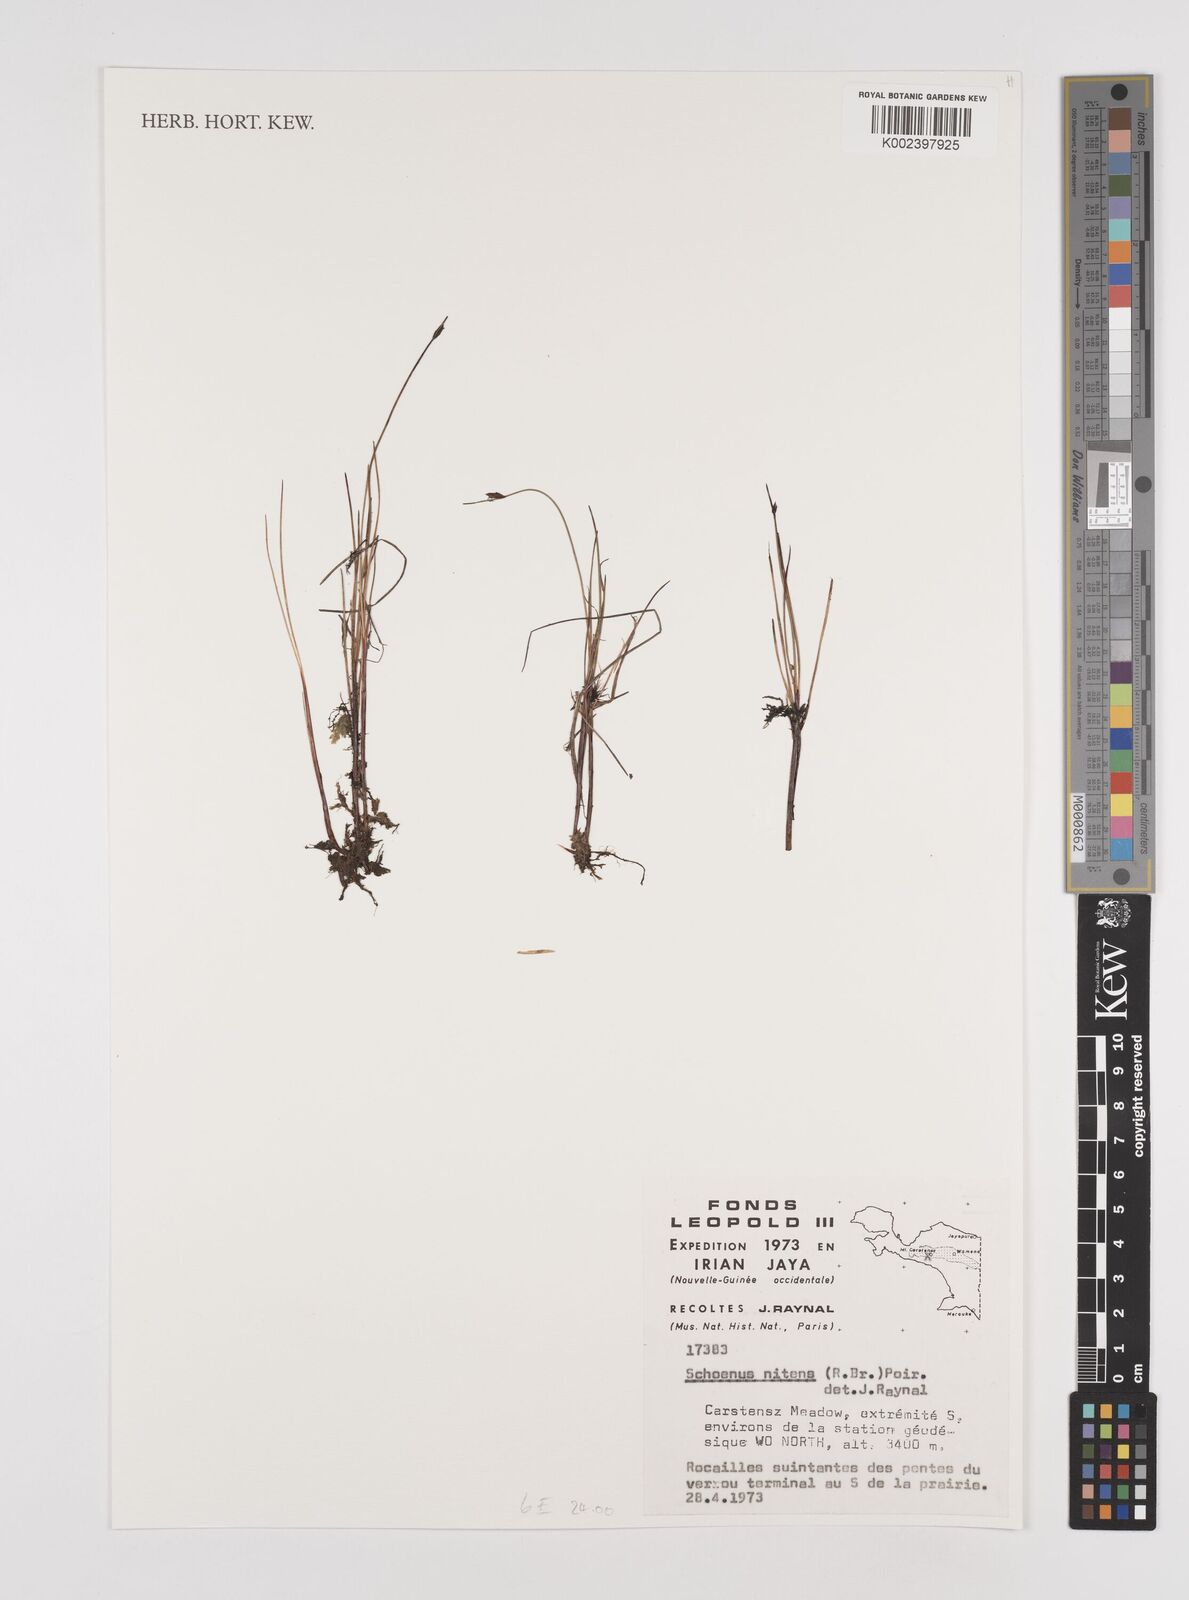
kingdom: Plantae
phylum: Tracheophyta
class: Liliopsida
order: Poales
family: Cyperaceae
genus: Schoenus
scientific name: Schoenus nitens
